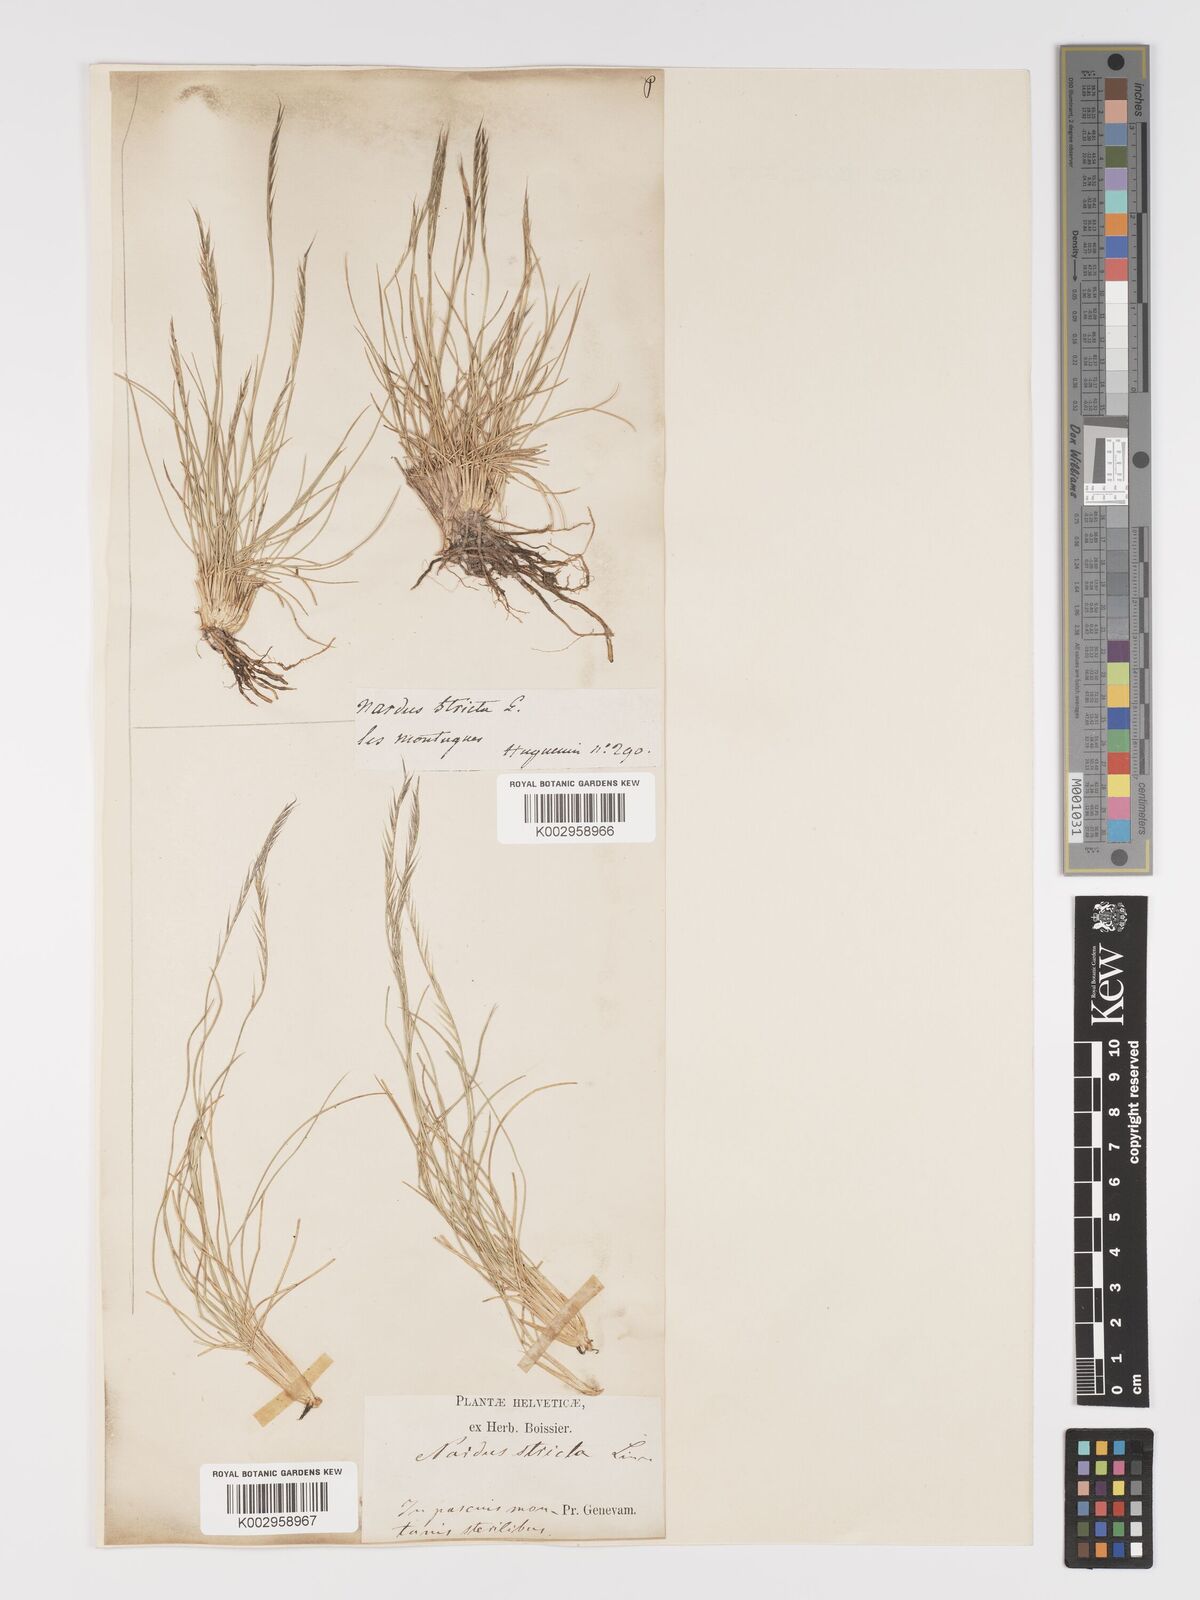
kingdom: Plantae
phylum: Tracheophyta
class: Liliopsida
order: Poales
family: Poaceae
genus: Nardus
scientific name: Nardus stricta
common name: Mat-grass
